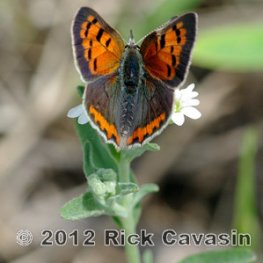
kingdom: Animalia
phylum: Arthropoda
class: Insecta
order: Lepidoptera
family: Lycaenidae
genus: Lycaena
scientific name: Lycaena phlaeas
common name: American Copper
